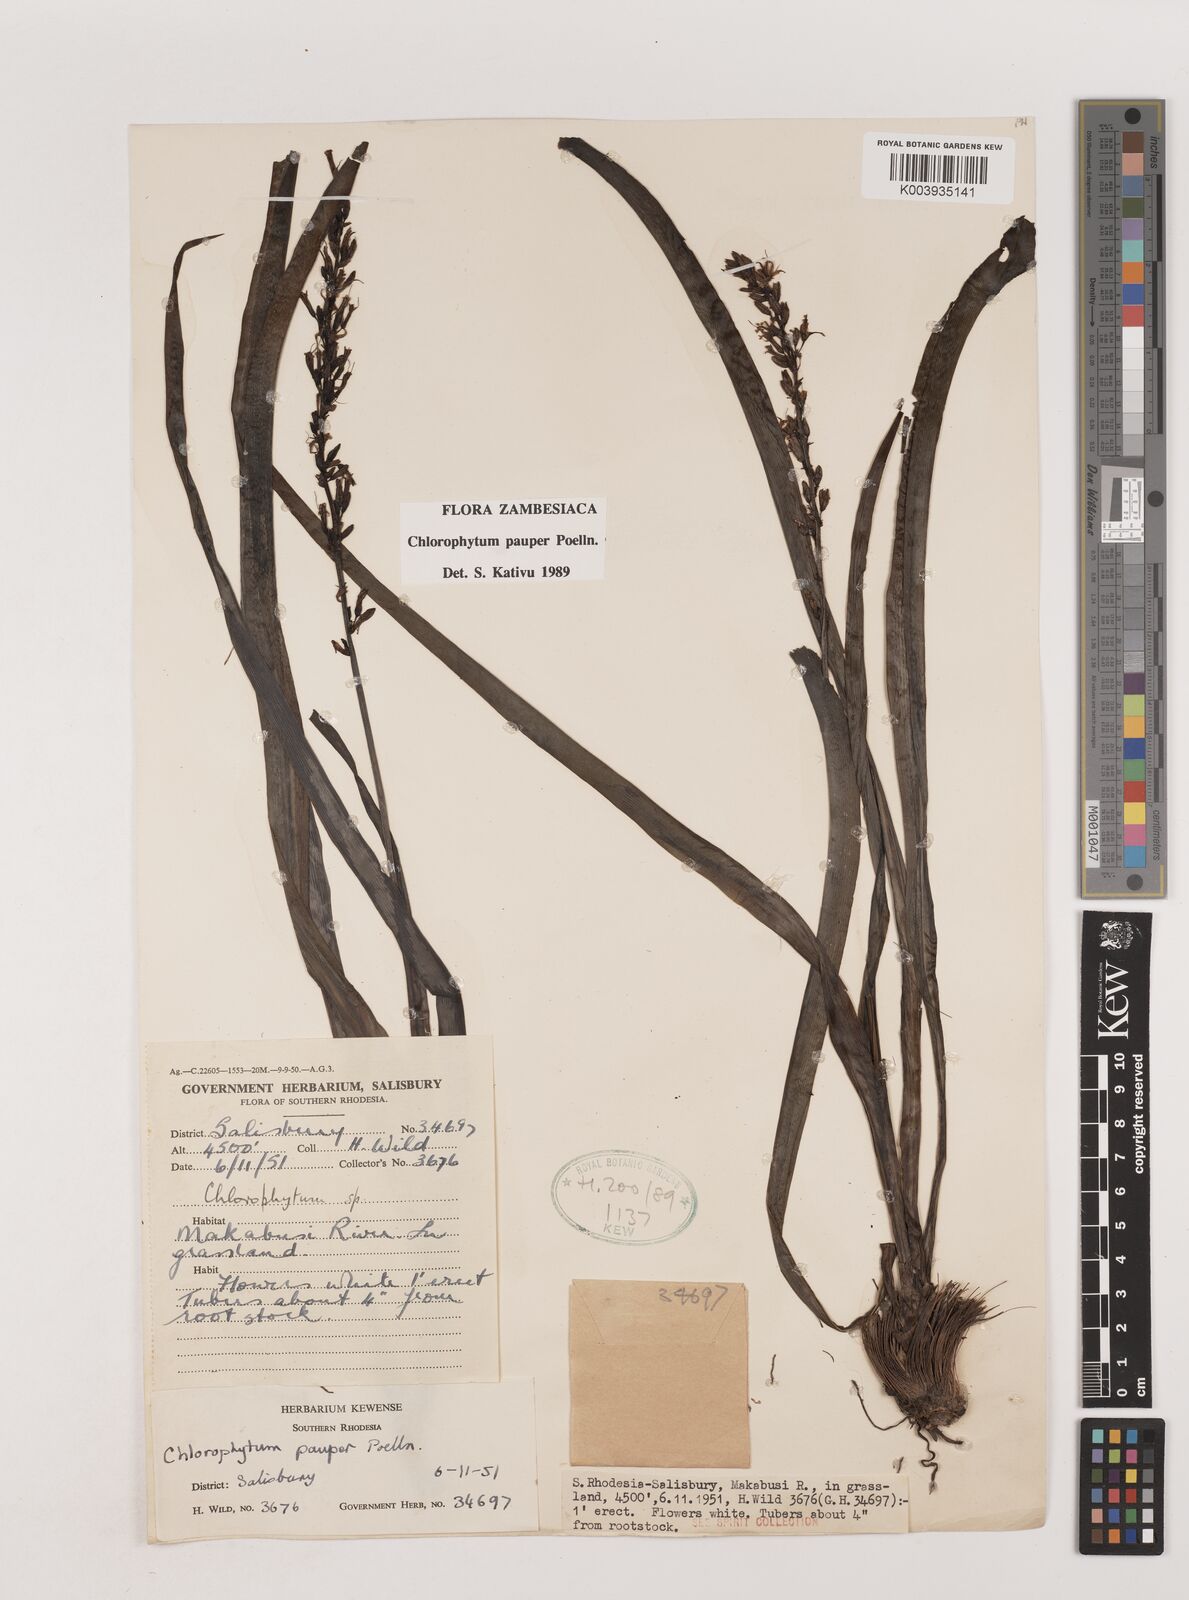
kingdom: Plantae
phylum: Tracheophyta
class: Liliopsida
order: Asparagales
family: Asparagaceae
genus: Chlorophytum
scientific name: Chlorophytum pauper
